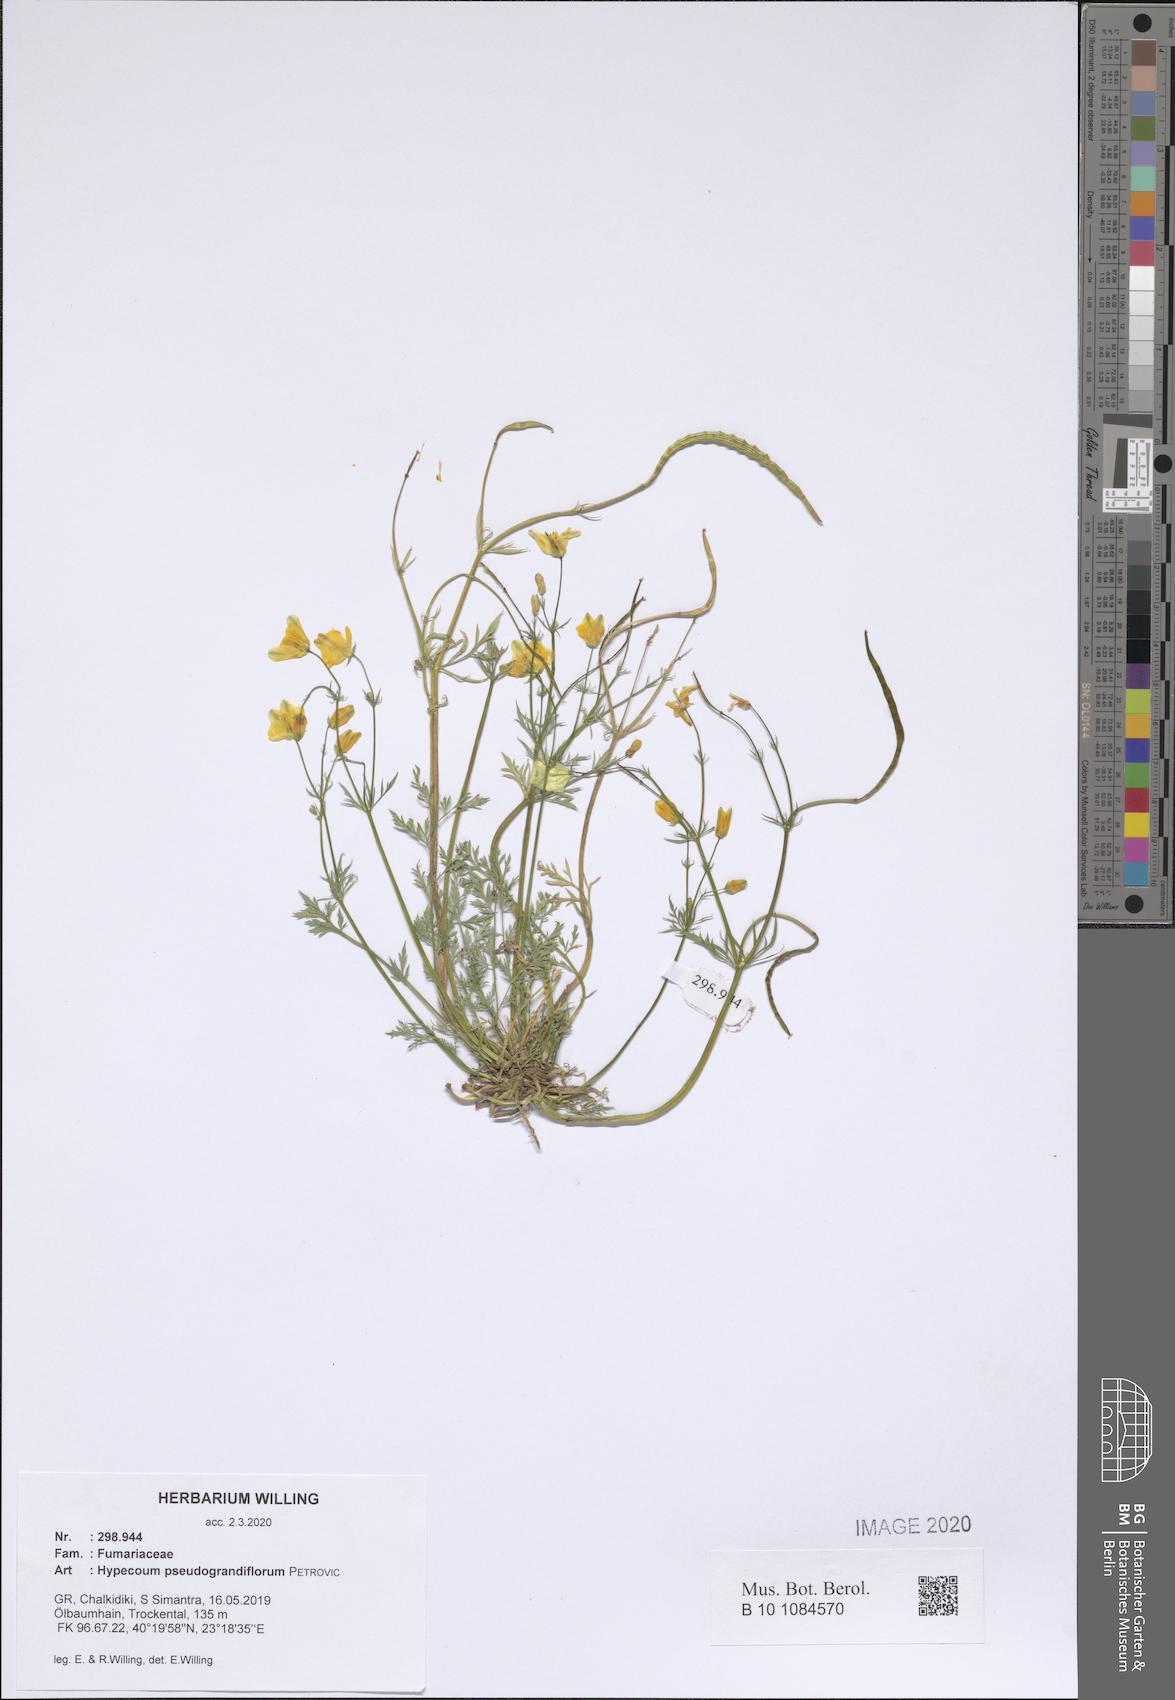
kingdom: Plantae
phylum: Tracheophyta
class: Magnoliopsida
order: Ranunculales
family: Papaveraceae
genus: Hypecoum
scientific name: Hypecoum pseudograndiflorum
